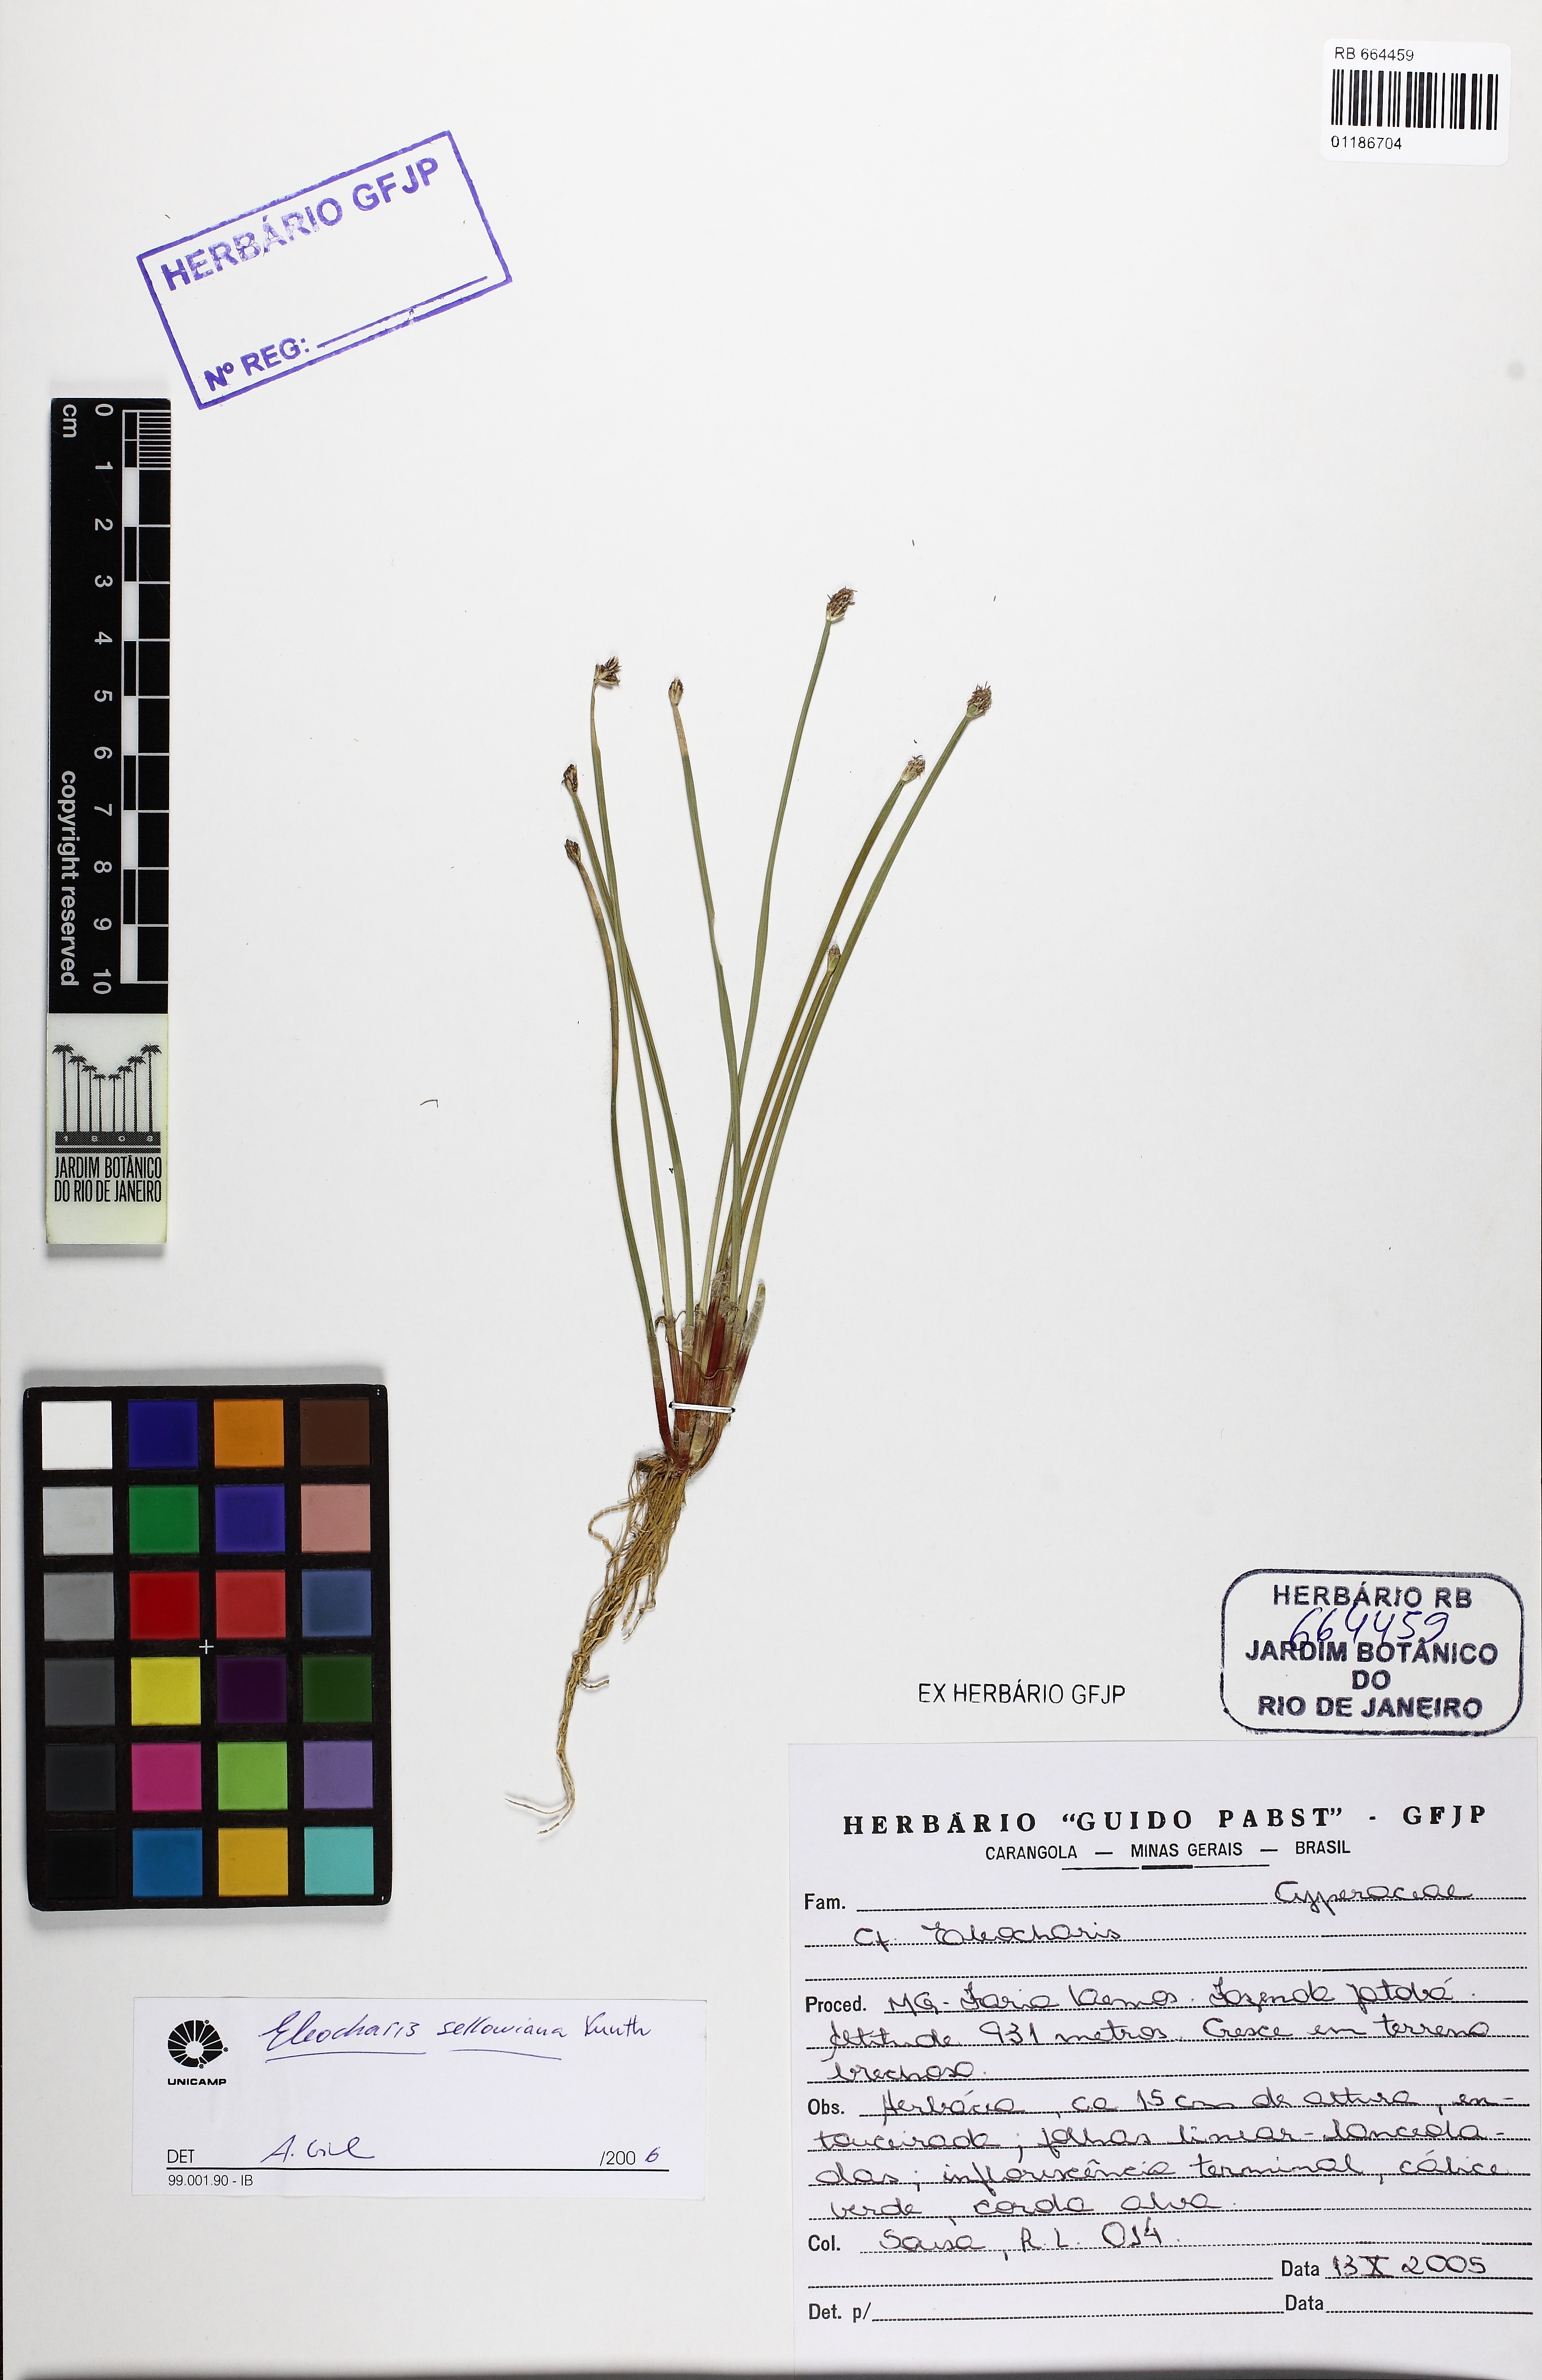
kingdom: Plantae
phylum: Tracheophyta
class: Liliopsida
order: Poales
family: Cyperaceae
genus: Eleocharis
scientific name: Eleocharis sellowiana
